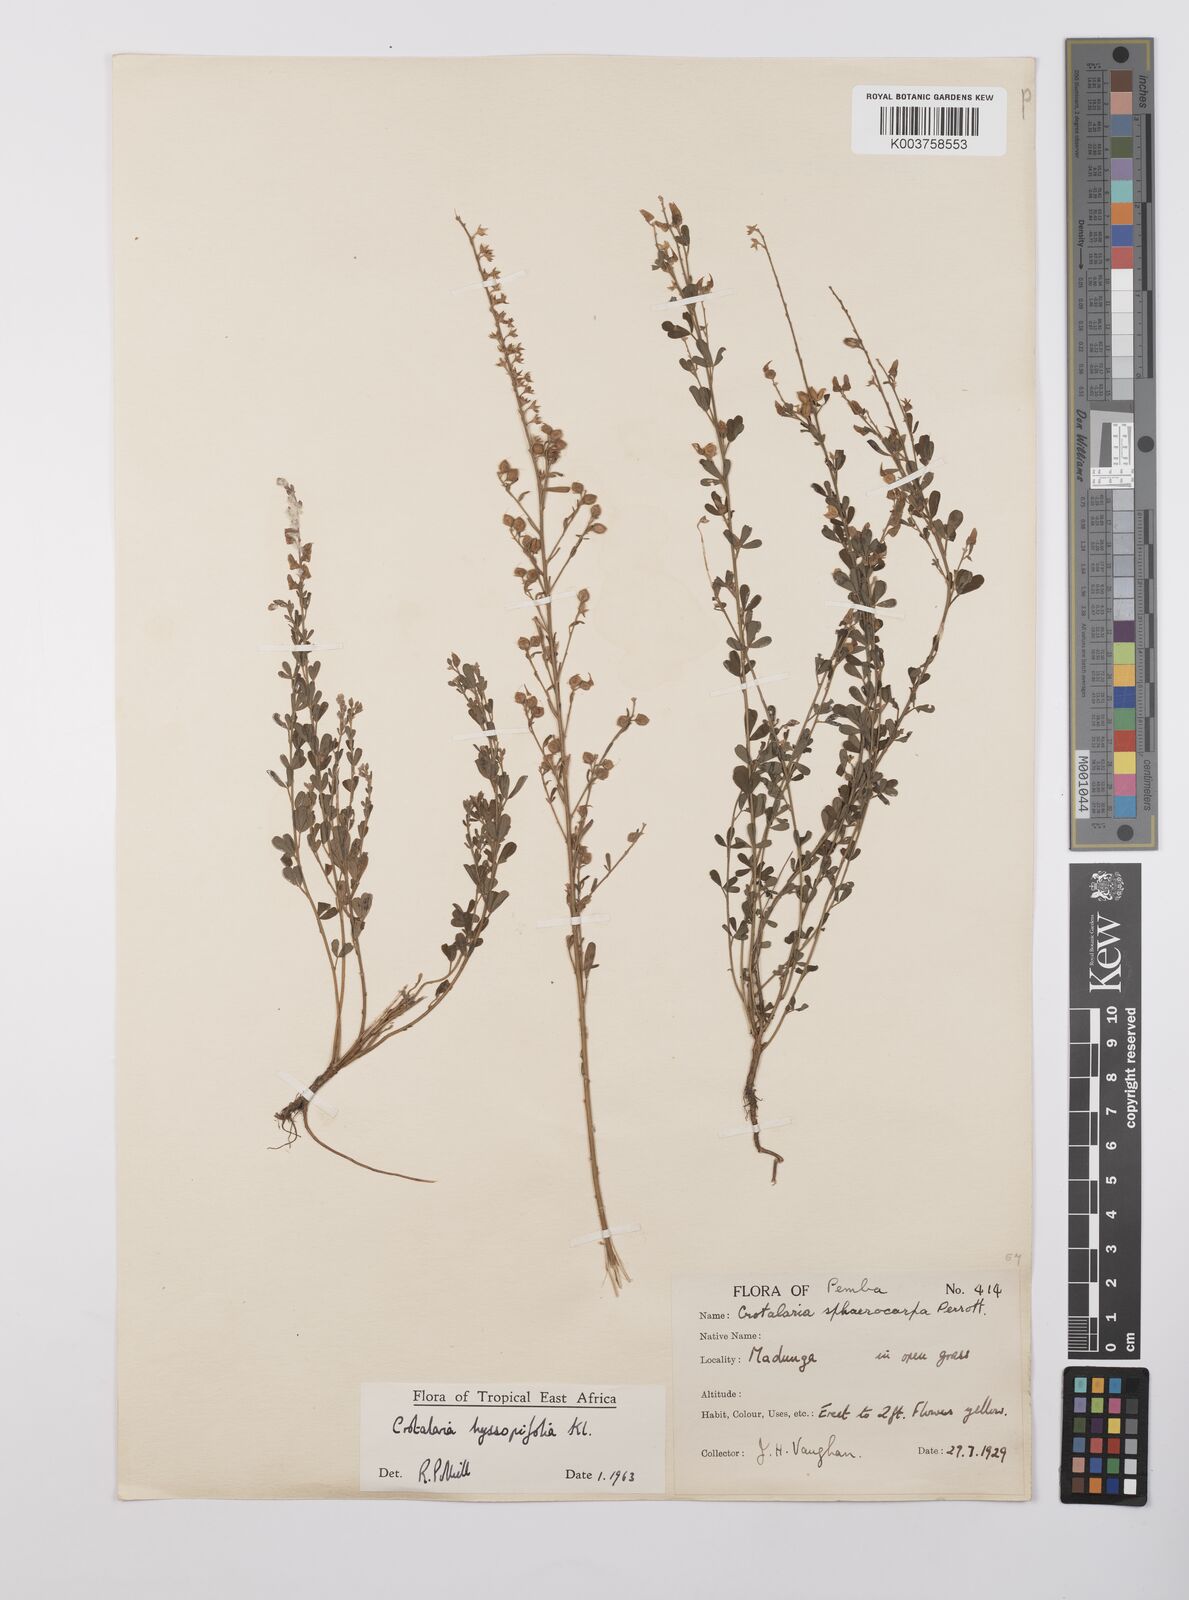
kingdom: Plantae
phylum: Tracheophyta
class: Magnoliopsida
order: Fabales
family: Fabaceae
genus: Crotalaria
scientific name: Crotalaria hyssopifolia
